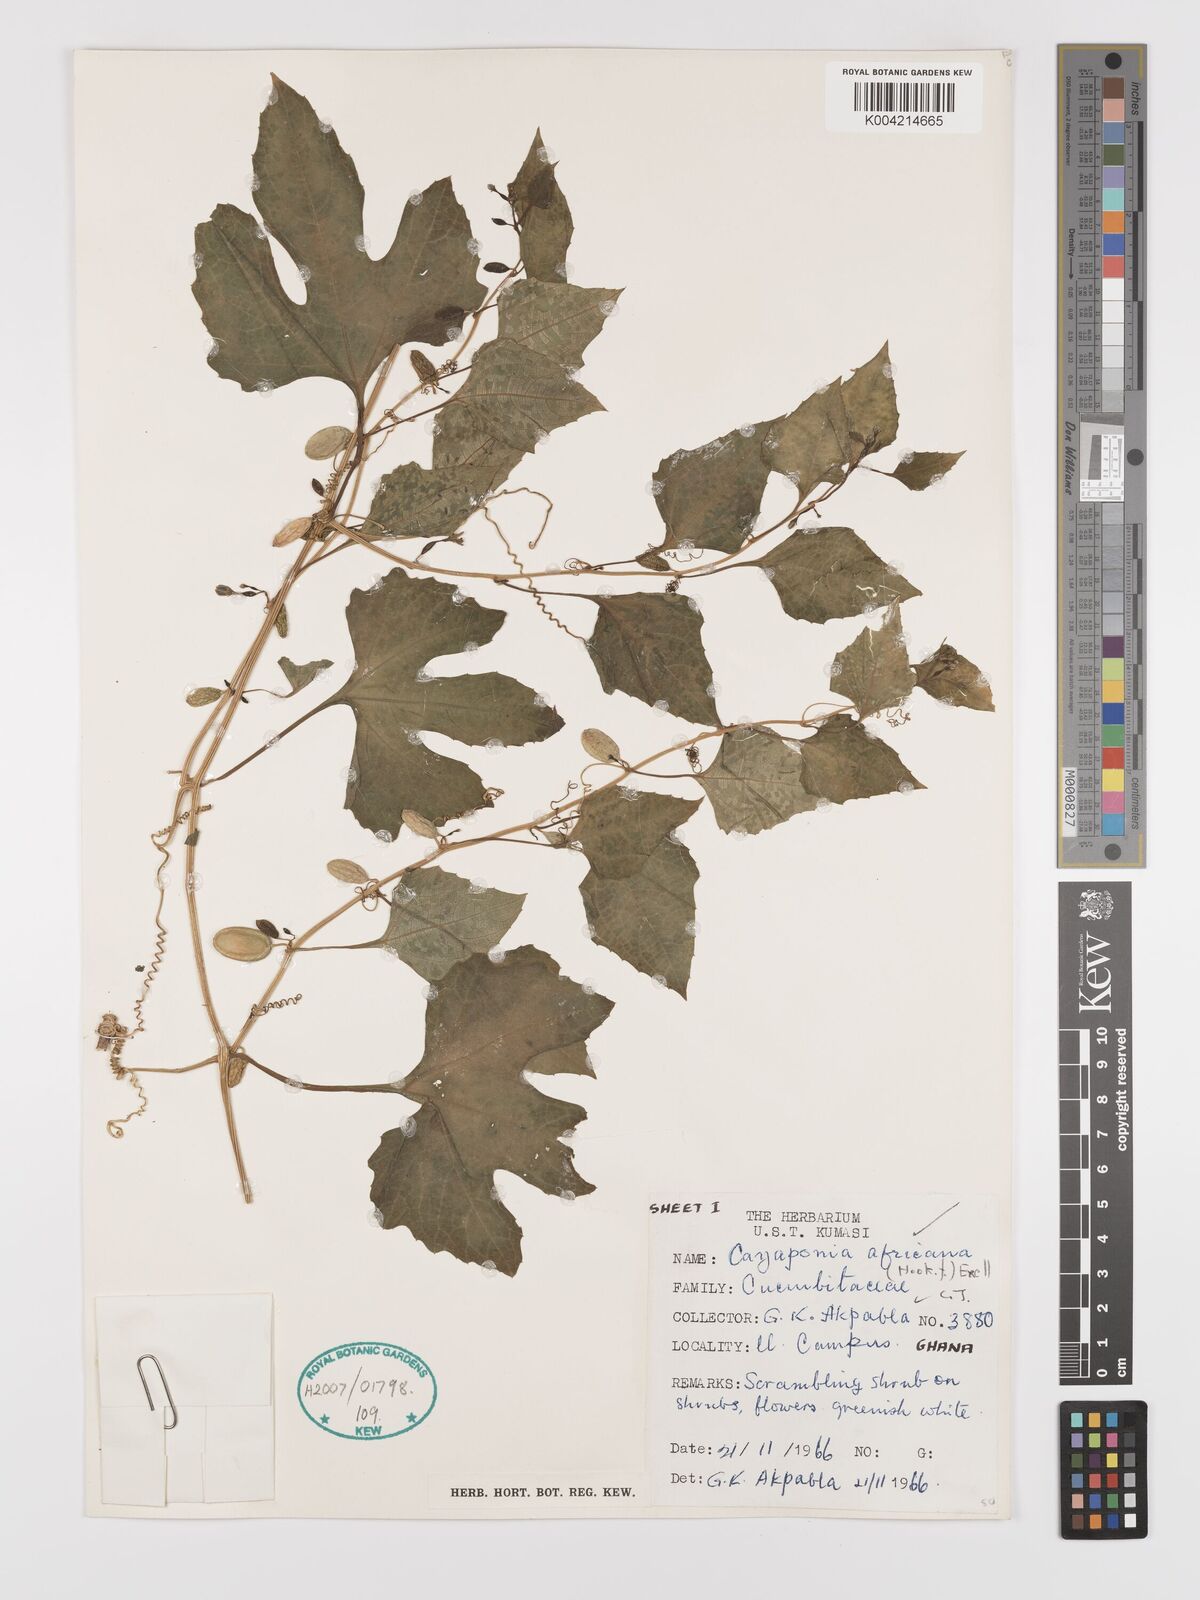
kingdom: Plantae
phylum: Tracheophyta
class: Magnoliopsida
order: Cucurbitales
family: Cucurbitaceae
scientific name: Cucurbitaceae
